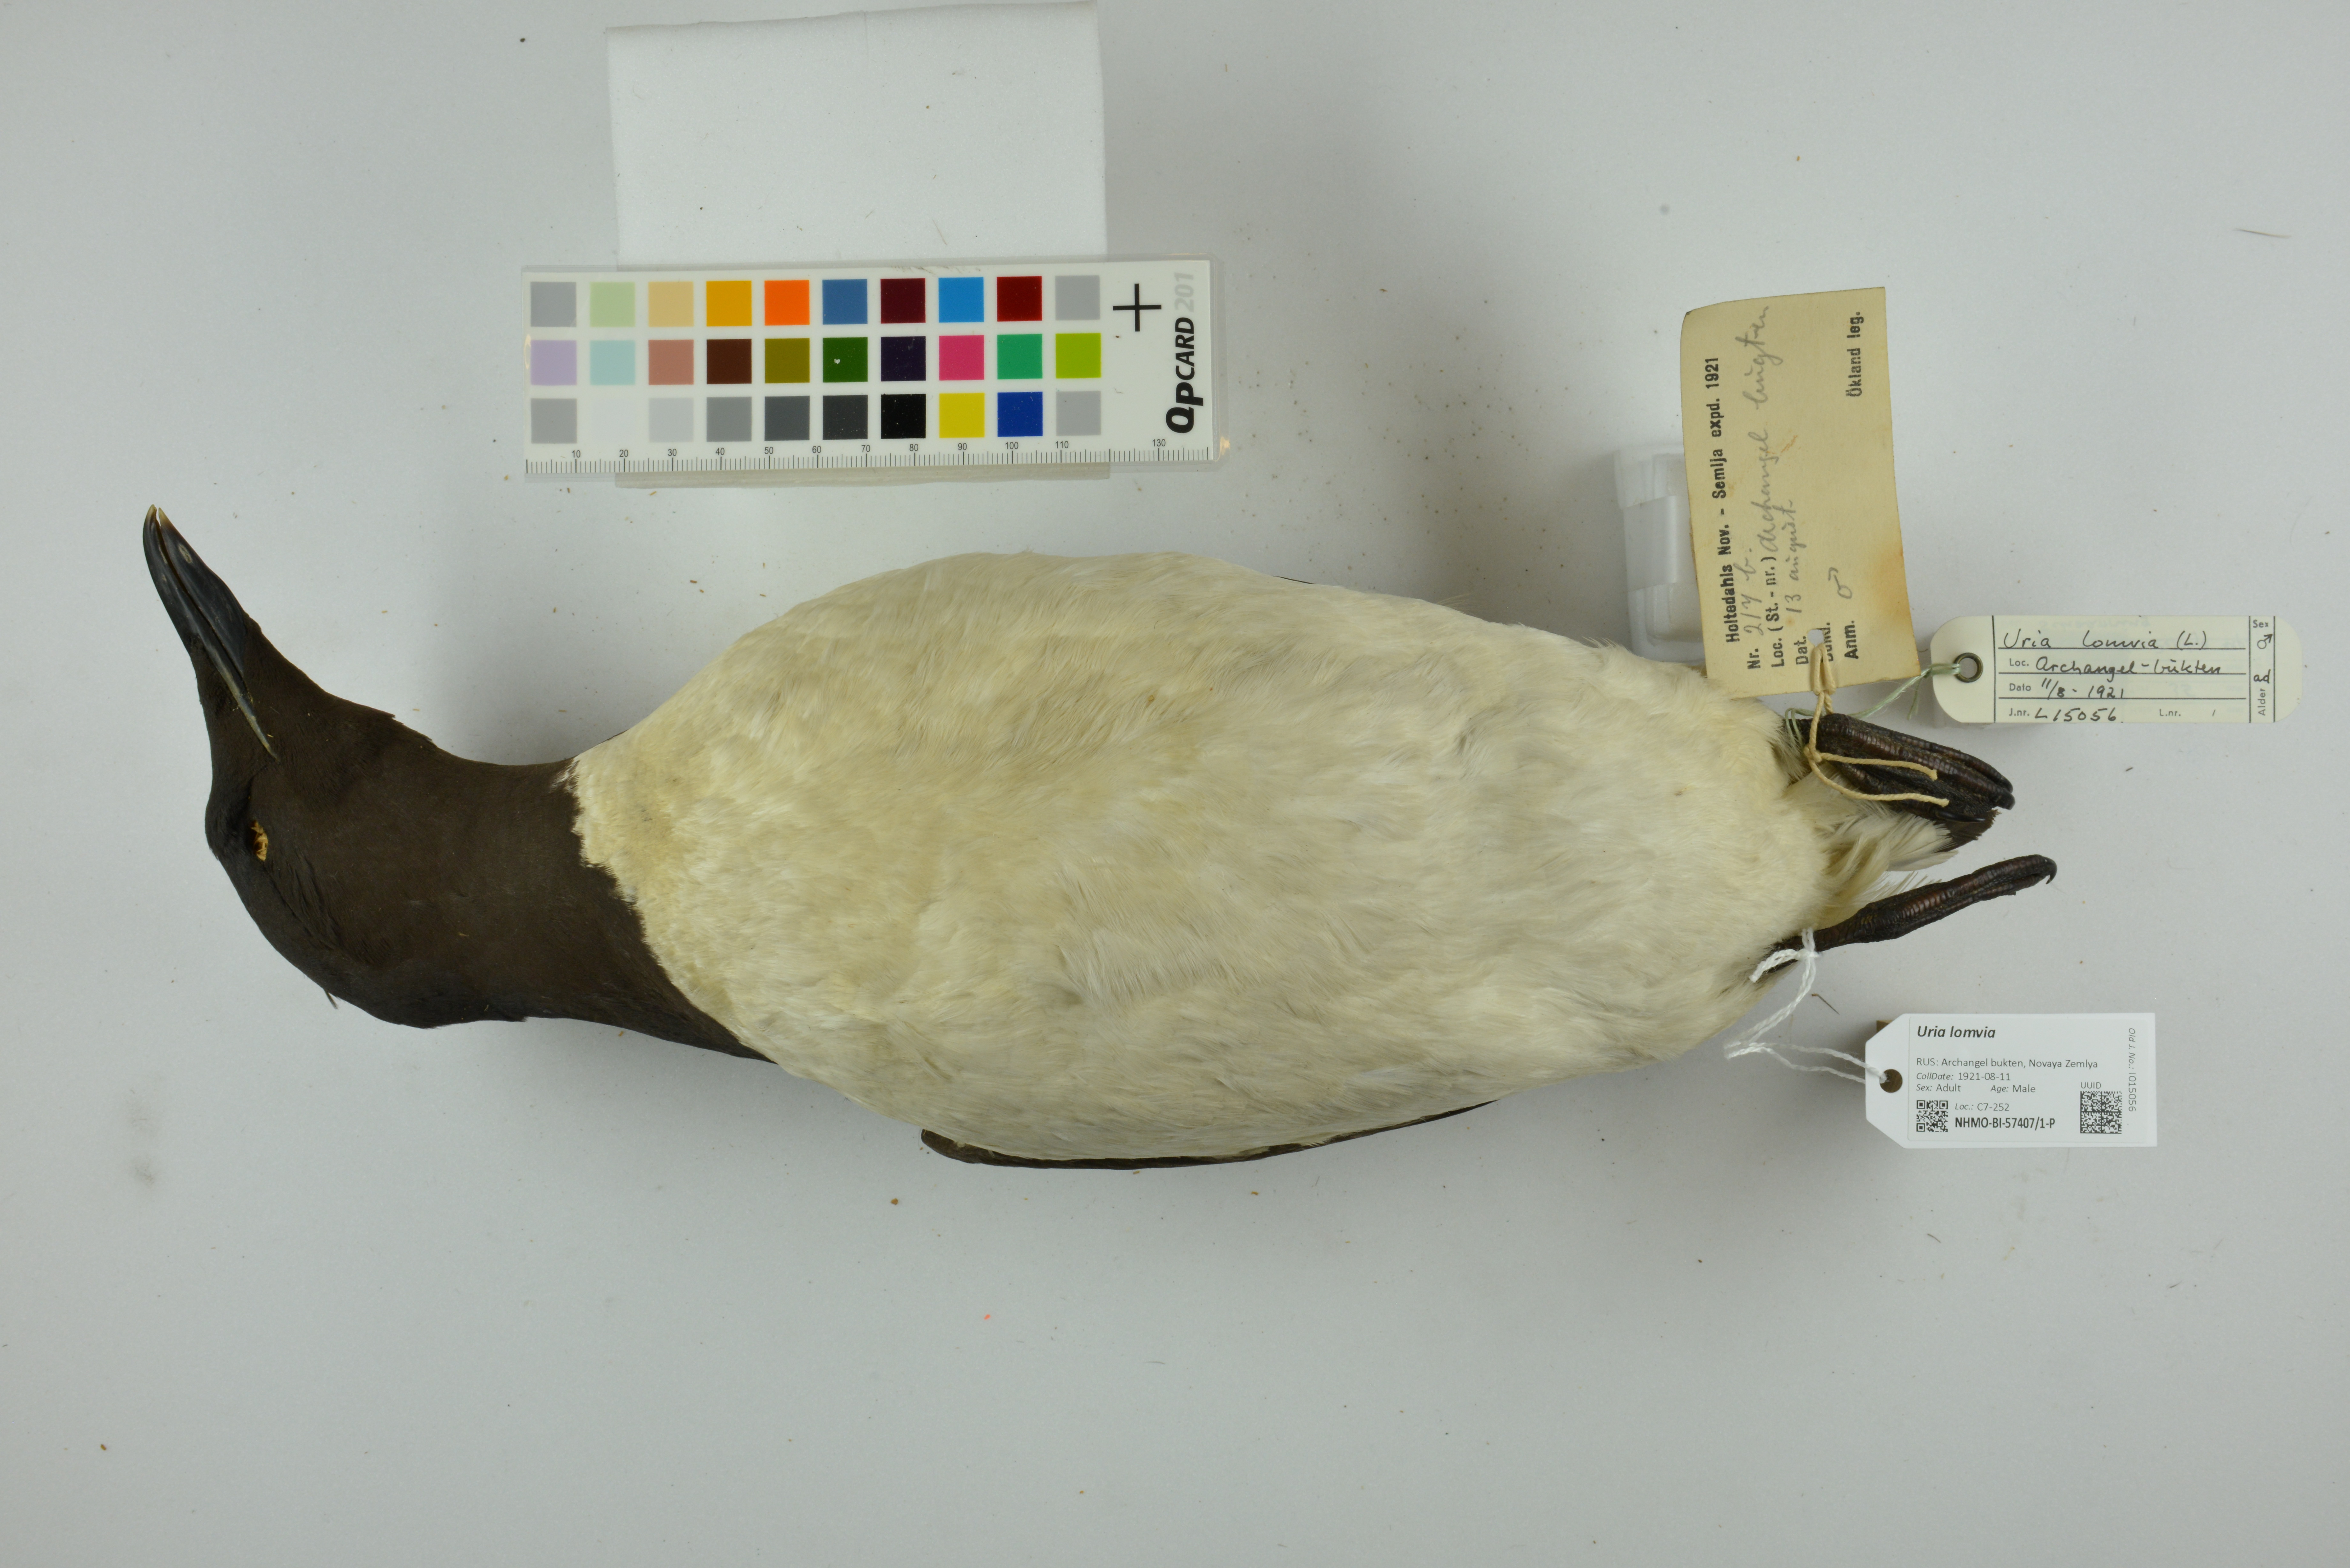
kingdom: Animalia
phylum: Chordata
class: Aves
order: Charadriiformes
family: Alcidae
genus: Uria
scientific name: Uria lomvia
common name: Thick-billed murre
